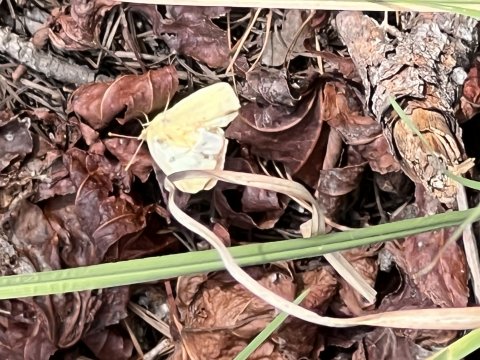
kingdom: Animalia
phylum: Arthropoda
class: Insecta
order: Lepidoptera
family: Pieridae
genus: Zerene
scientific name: Zerene cesonia
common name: Southern Dogface
